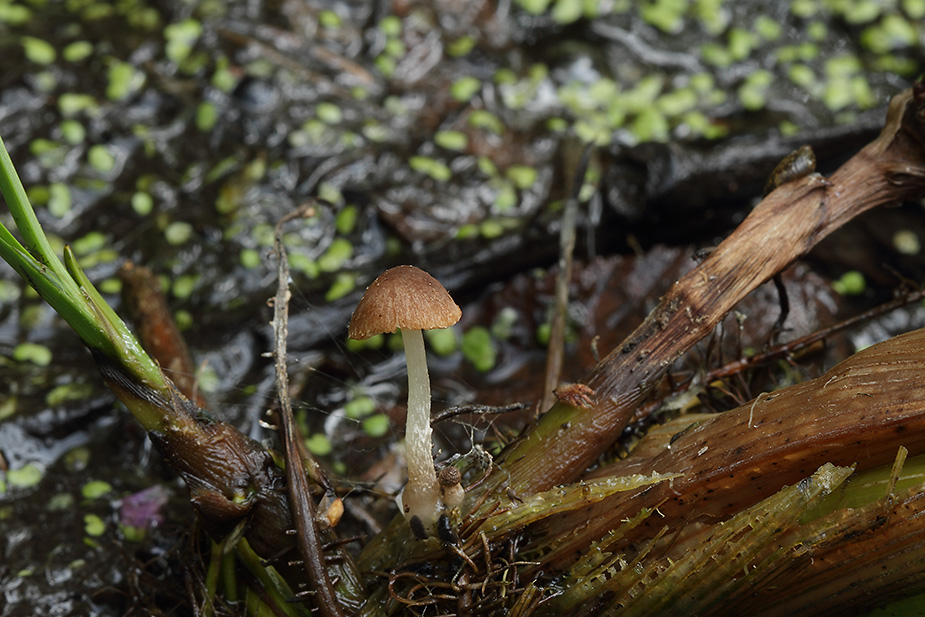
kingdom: Fungi
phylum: Basidiomycota
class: Agaricomycetes
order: Agaricales
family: Psathyrellaceae
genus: Candolleomyces
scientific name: Candolleomyces typhae
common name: dunhammer-mørkhat
